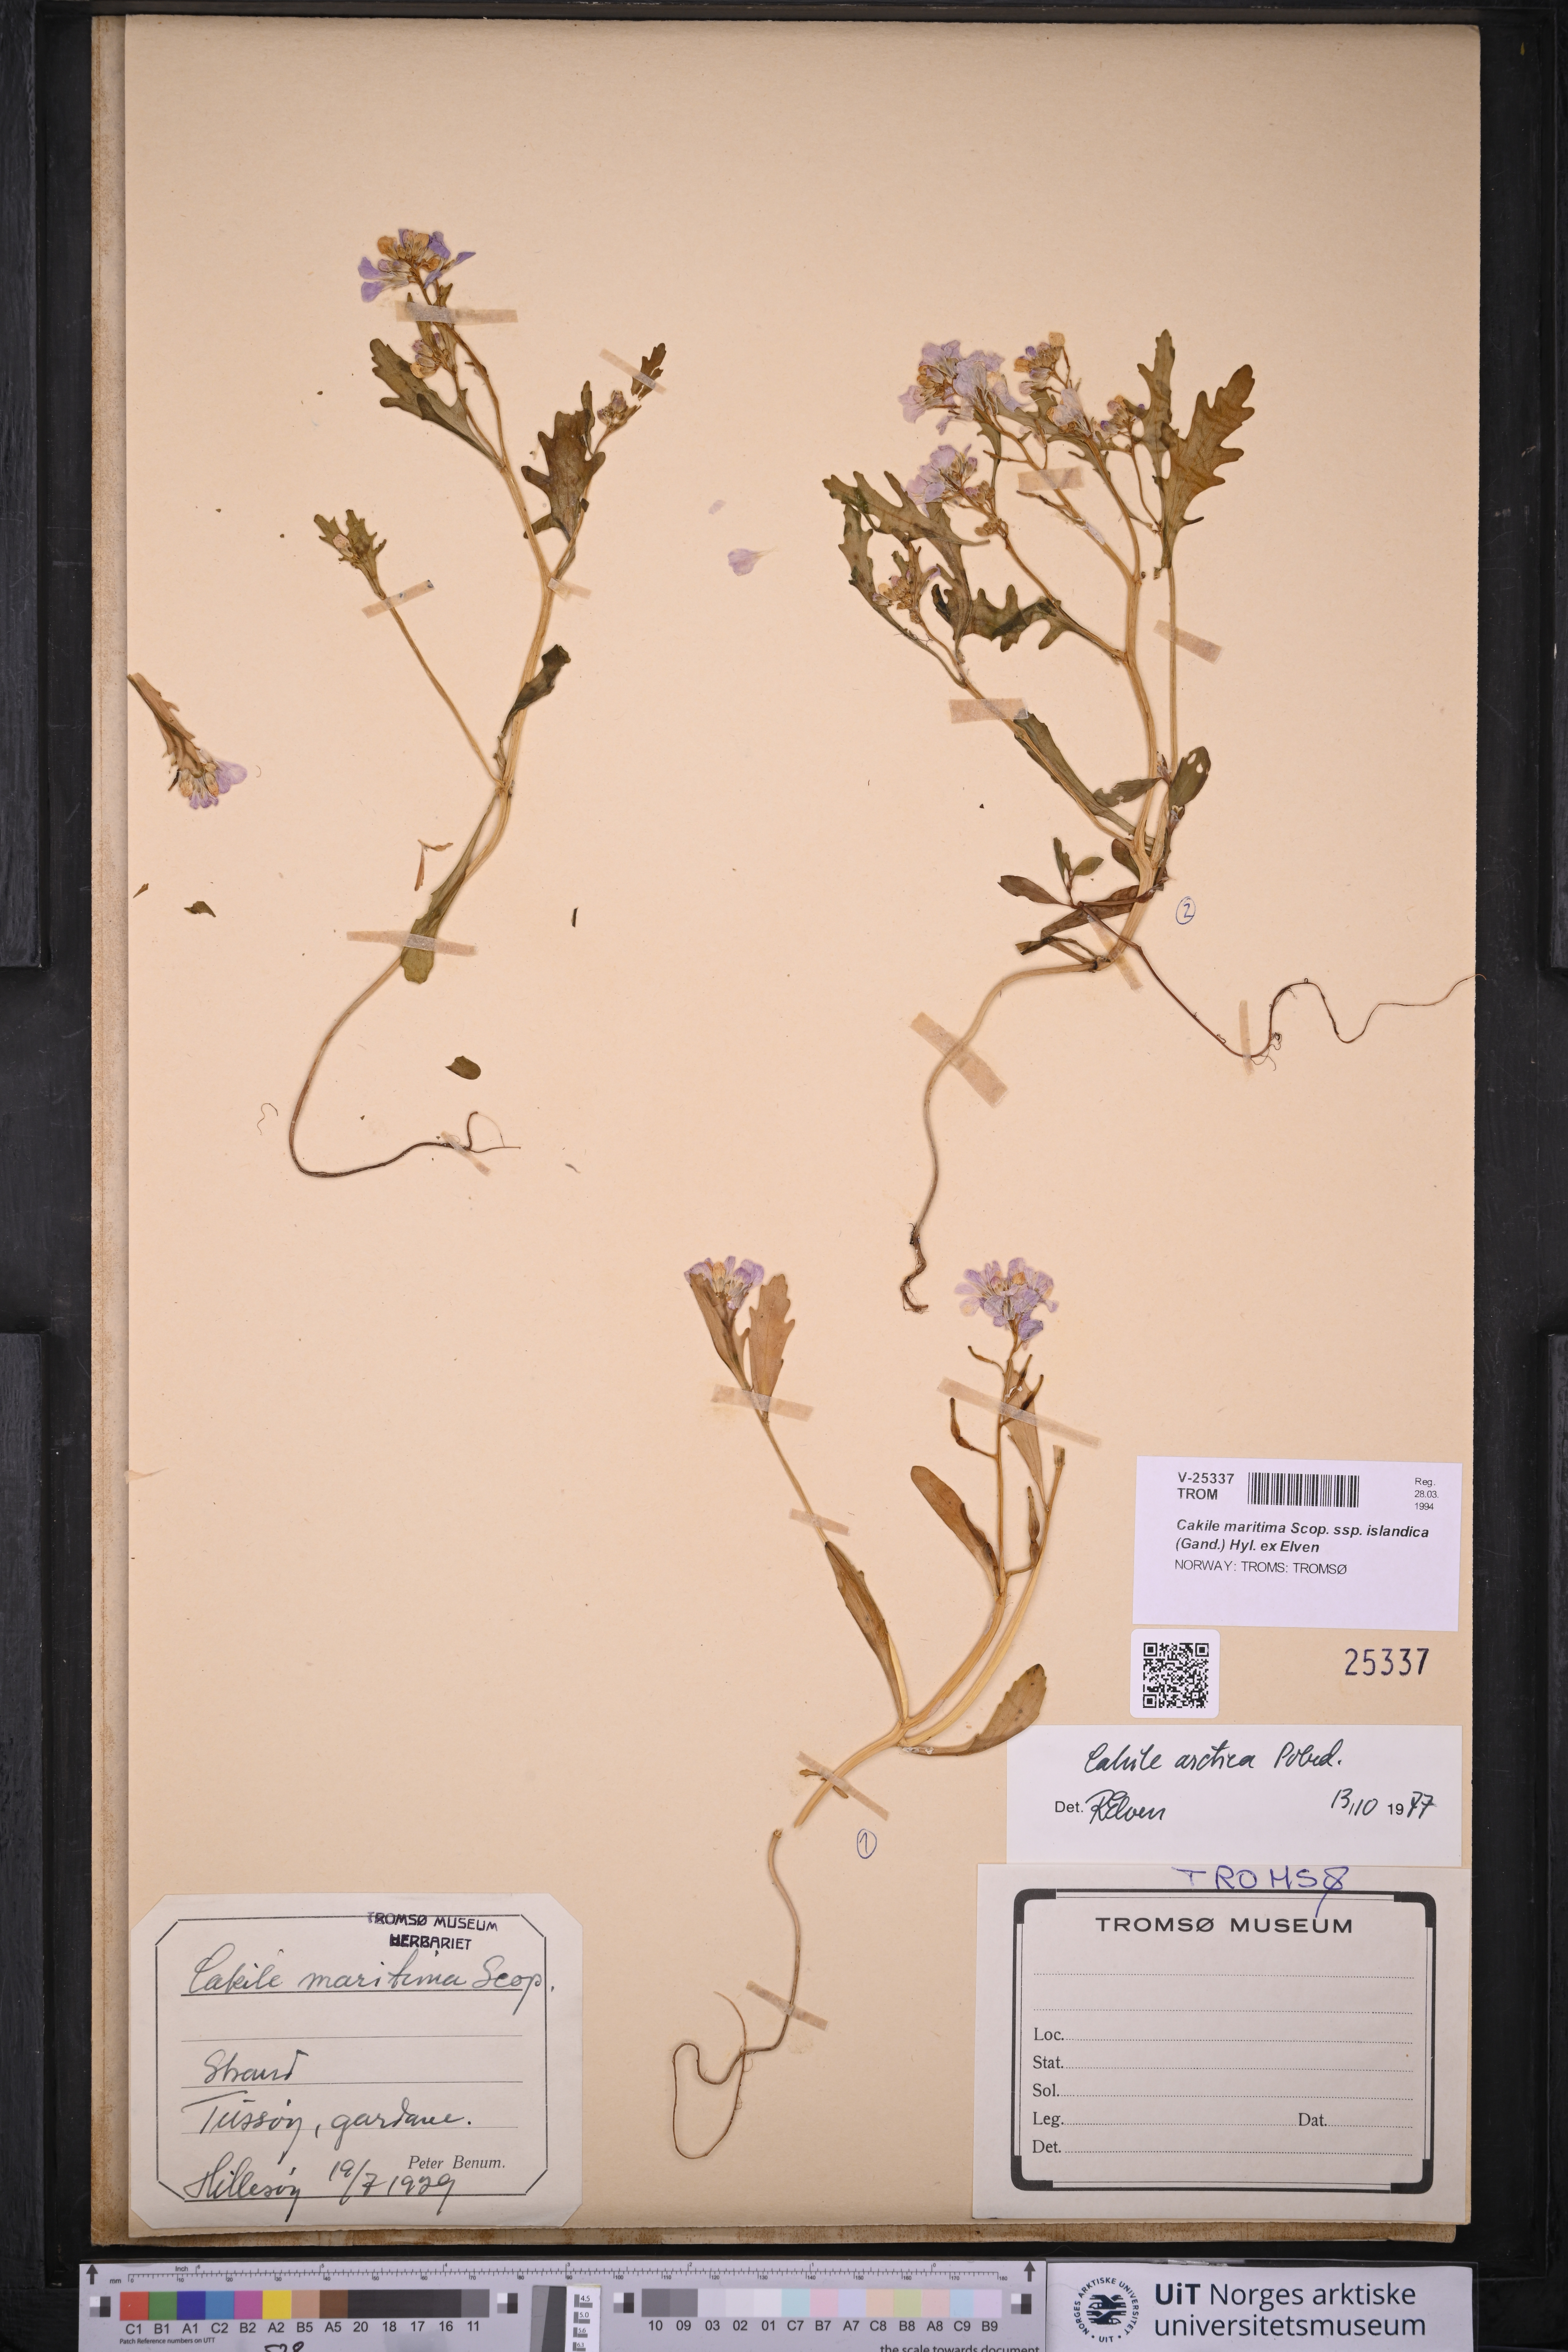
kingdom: Plantae
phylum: Tracheophyta
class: Magnoliopsida
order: Brassicales
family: Brassicaceae
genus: Cakile
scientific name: Cakile arctica
